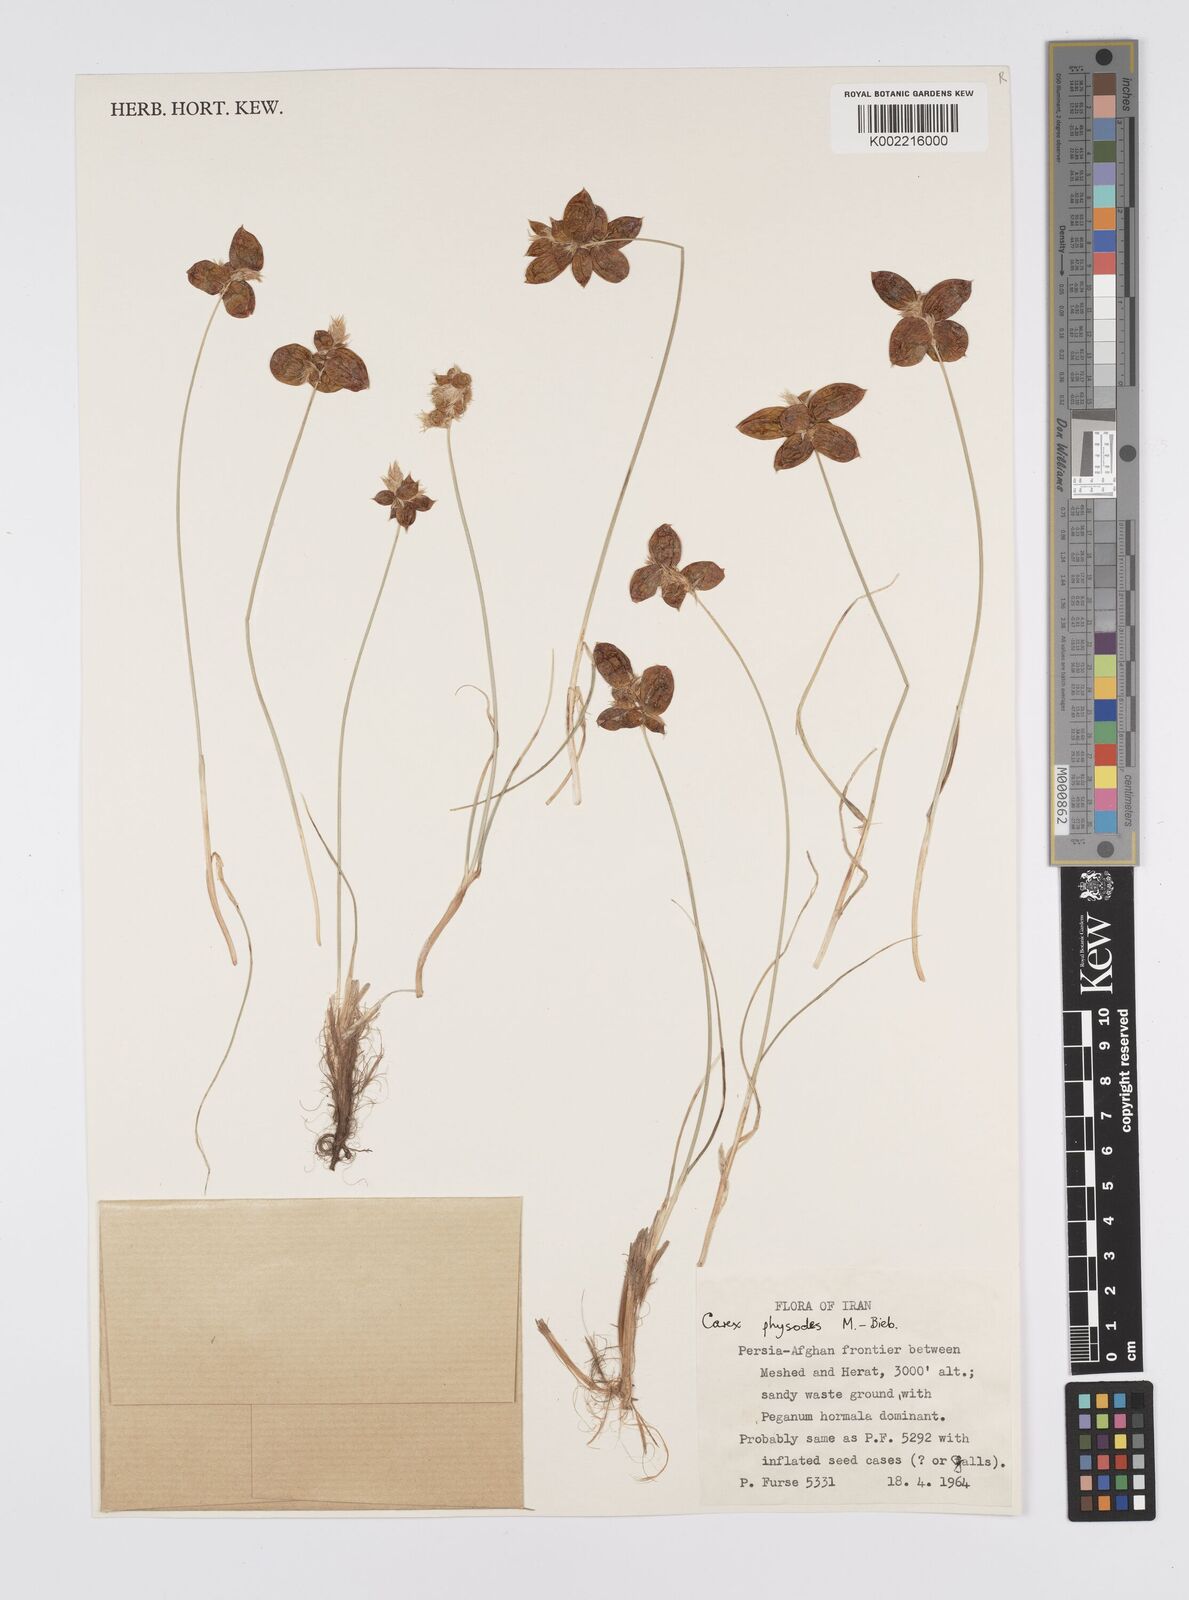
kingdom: Plantae
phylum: Tracheophyta
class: Liliopsida
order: Poales
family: Cyperaceae
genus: Carex
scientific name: Carex physodes
